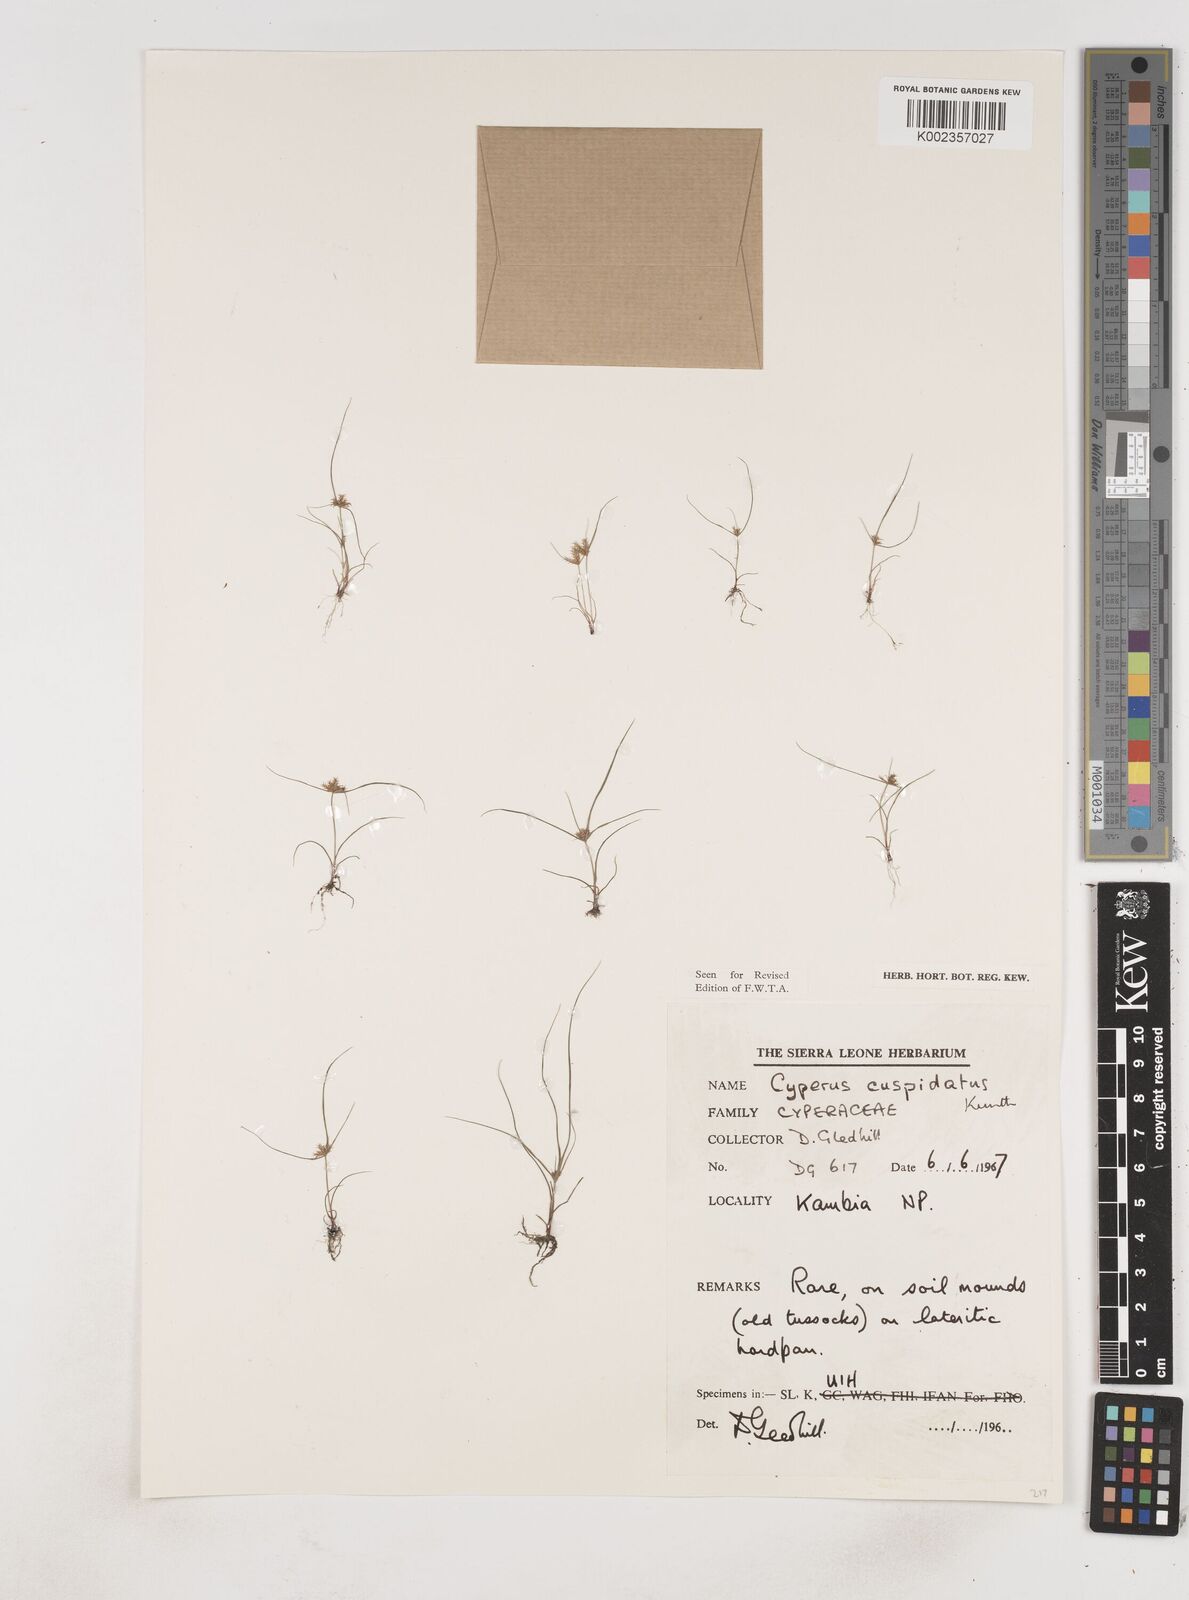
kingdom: Plantae
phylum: Tracheophyta
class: Liliopsida
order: Poales
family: Cyperaceae
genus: Cyperus
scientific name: Cyperus
